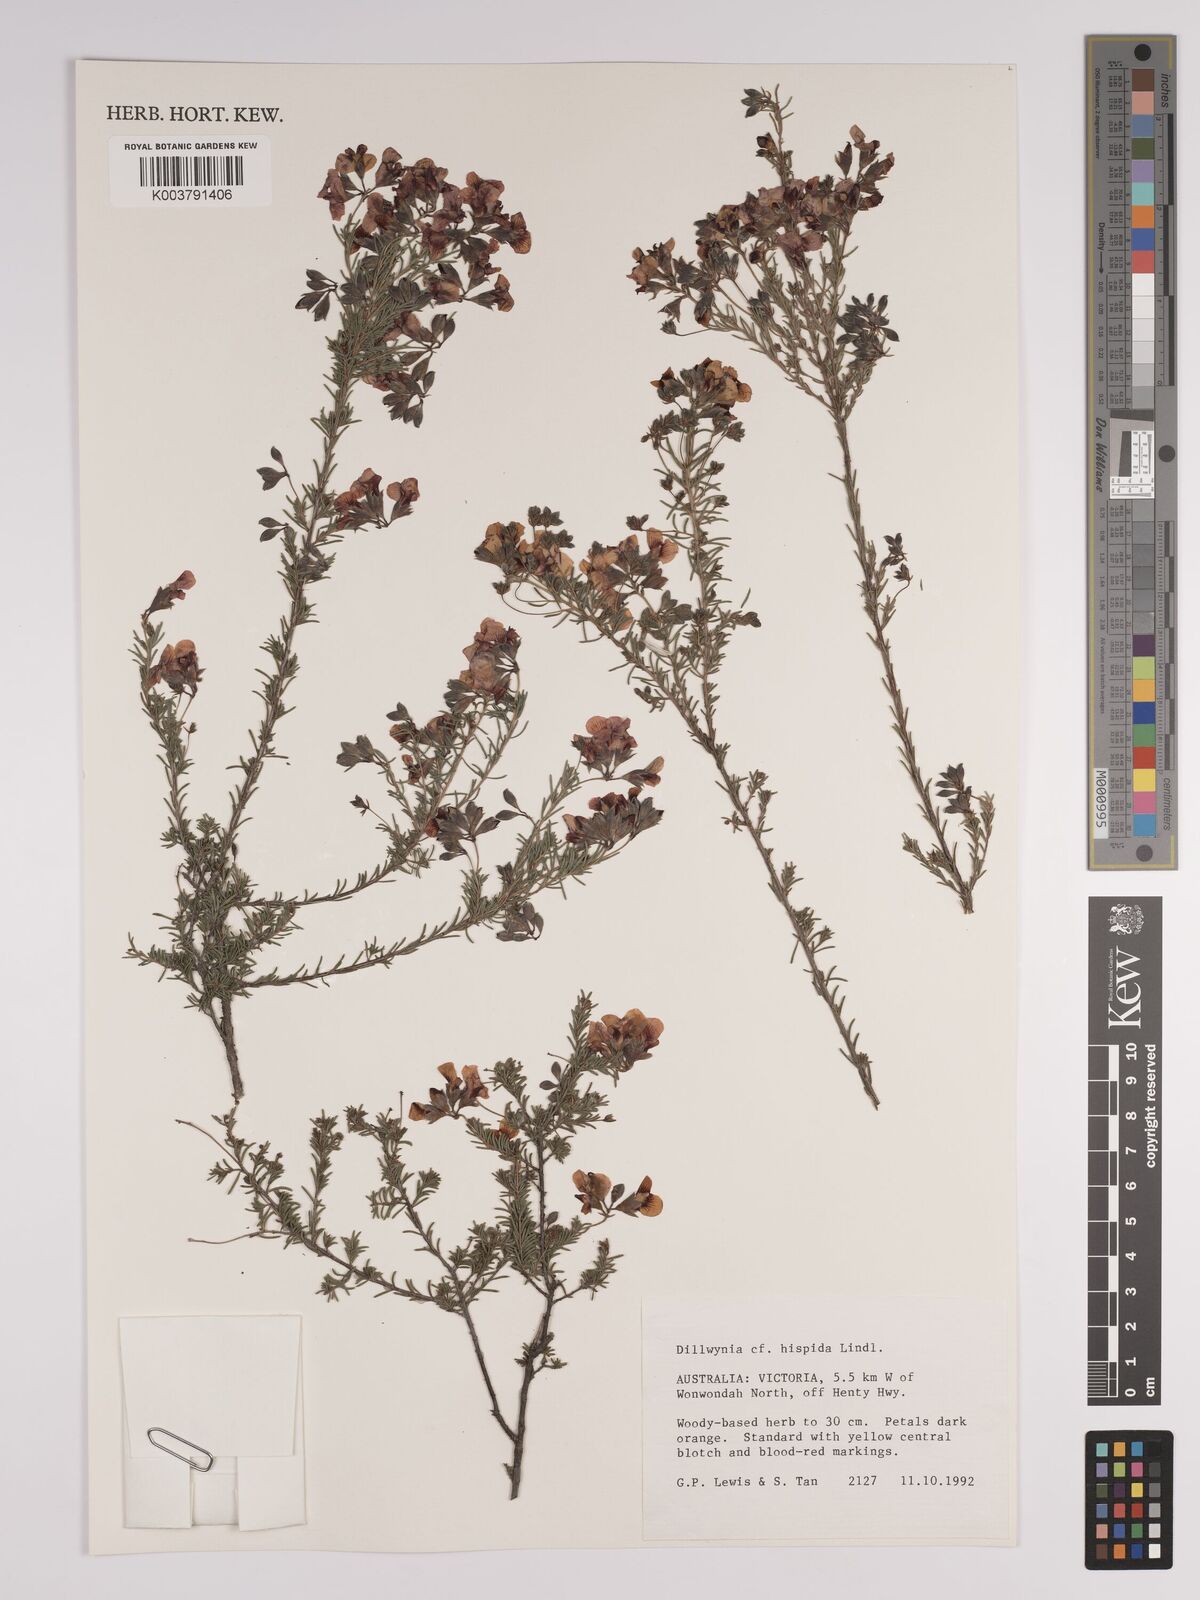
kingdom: Plantae
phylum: Tracheophyta
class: Magnoliopsida
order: Fabales
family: Fabaceae
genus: Dillwynia
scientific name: Dillwynia hispida
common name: Red parrot-pea
